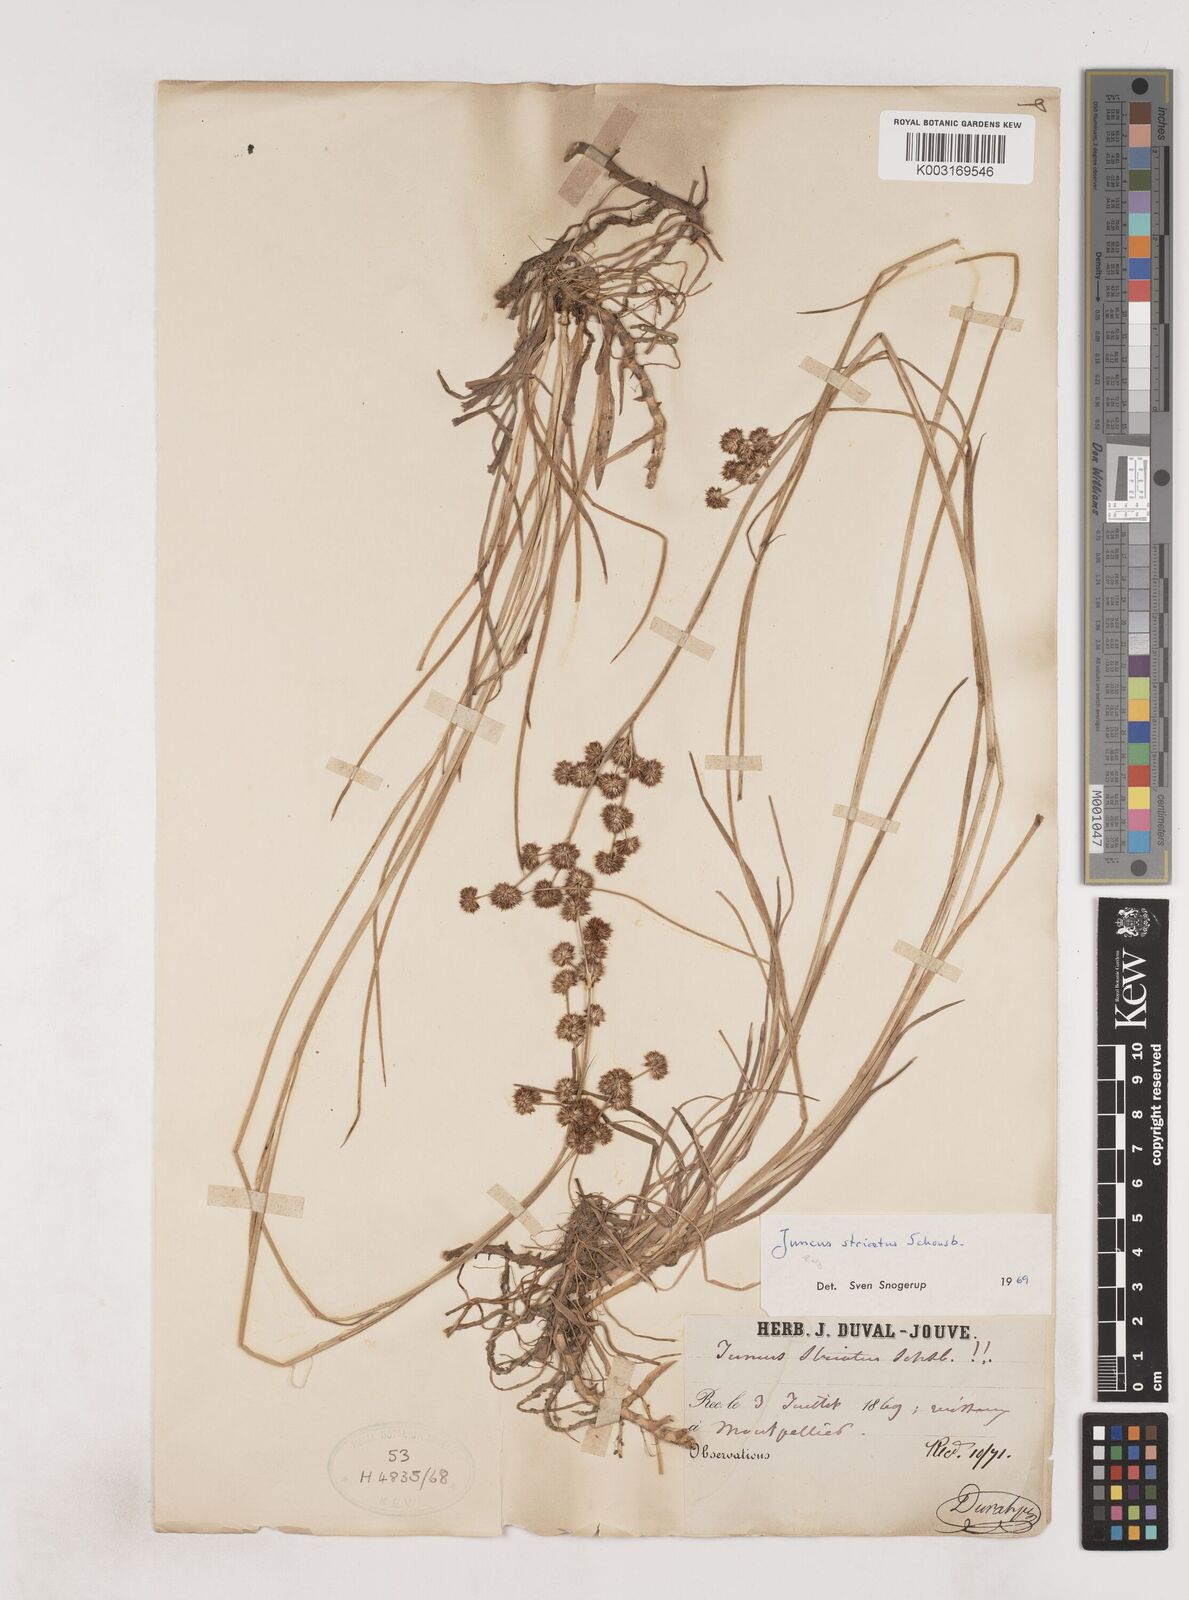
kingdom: Plantae
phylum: Tracheophyta
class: Liliopsida
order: Poales
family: Juncaceae
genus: Juncus
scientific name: Juncus striatus
